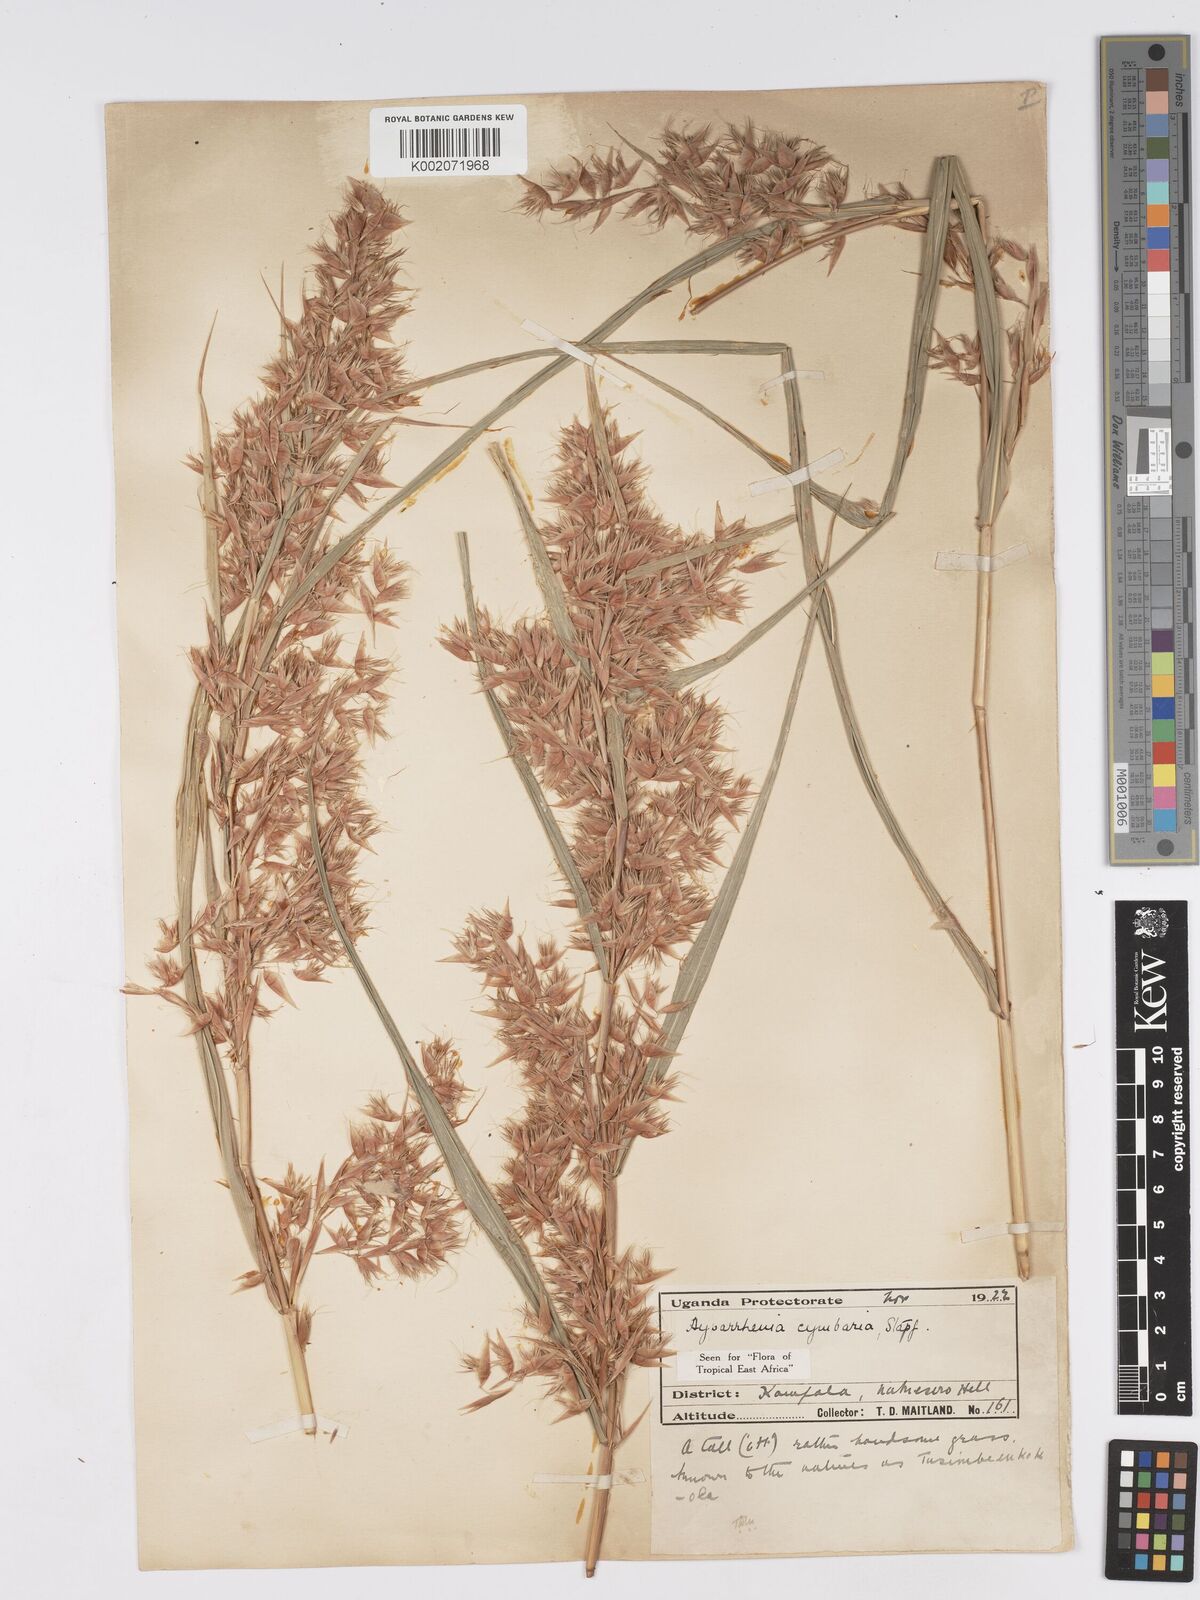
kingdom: Plantae
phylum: Tracheophyta
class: Liliopsida
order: Poales
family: Poaceae
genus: Hyparrhenia
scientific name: Hyparrhenia cymbaria
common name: Boat thatching grass
